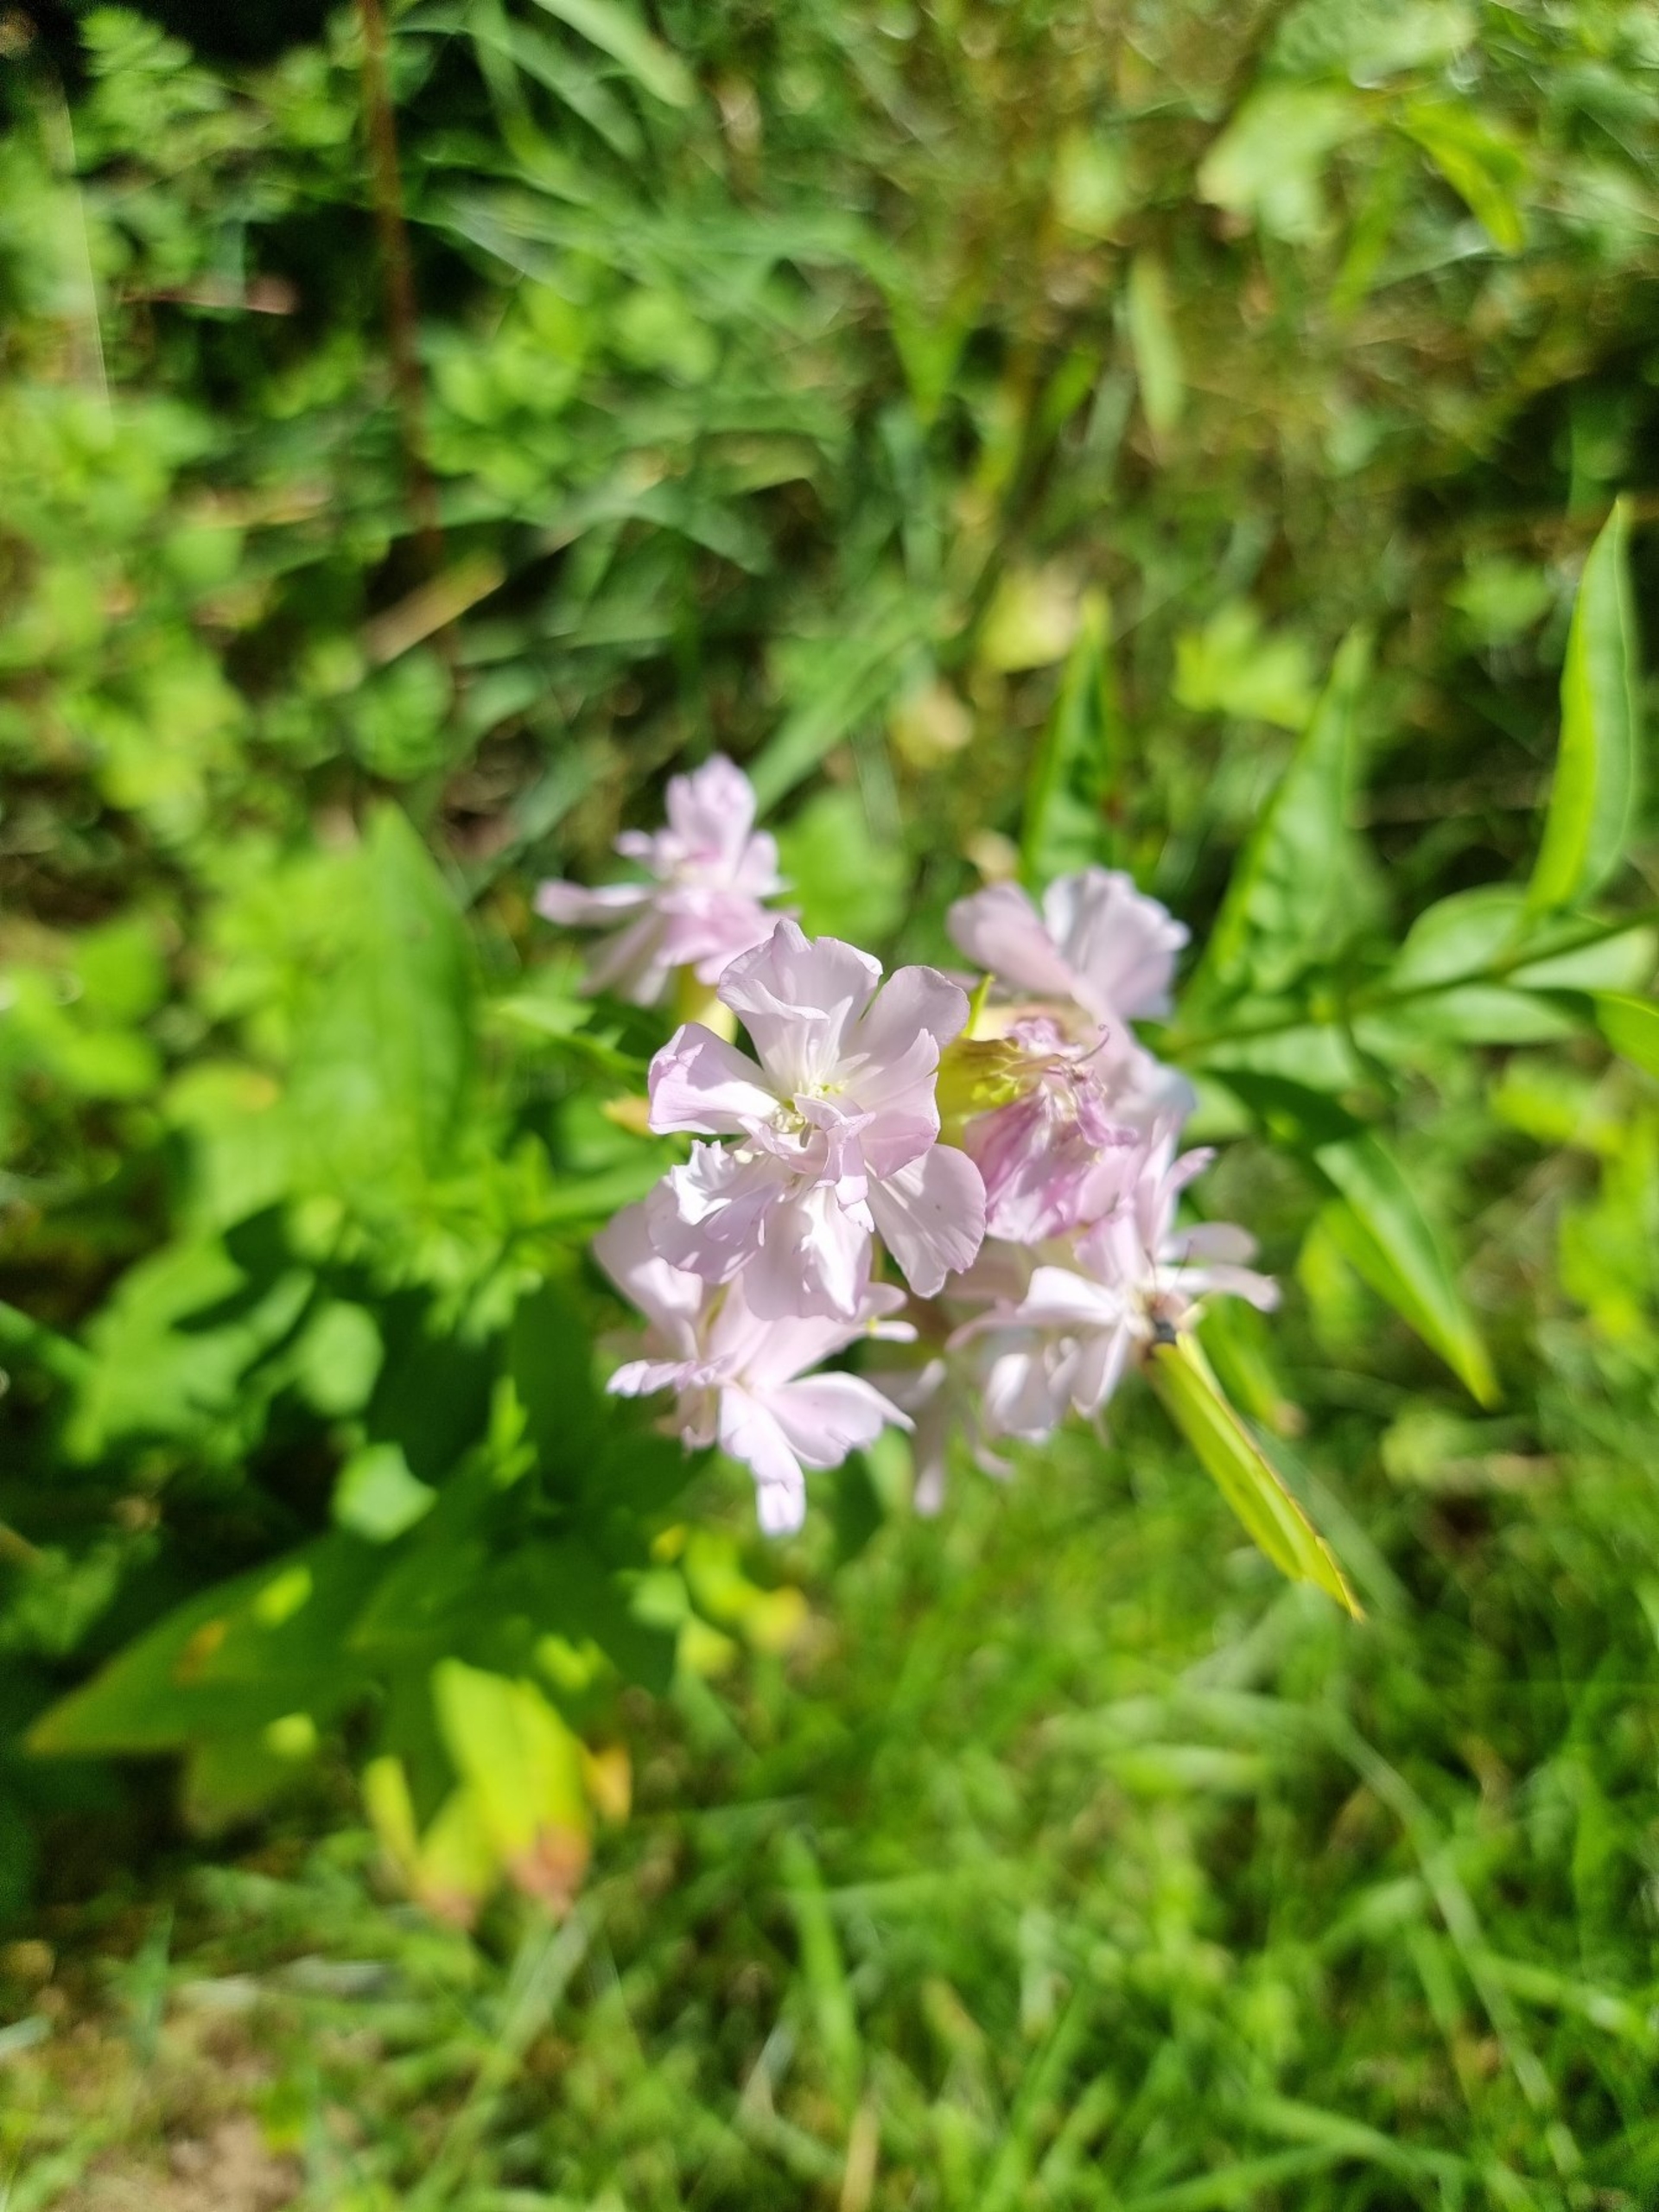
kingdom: Plantae
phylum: Tracheophyta
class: Magnoliopsida
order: Caryophyllales
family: Caryophyllaceae
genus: Saponaria
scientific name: Saponaria officinalis
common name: Sæbeurt
